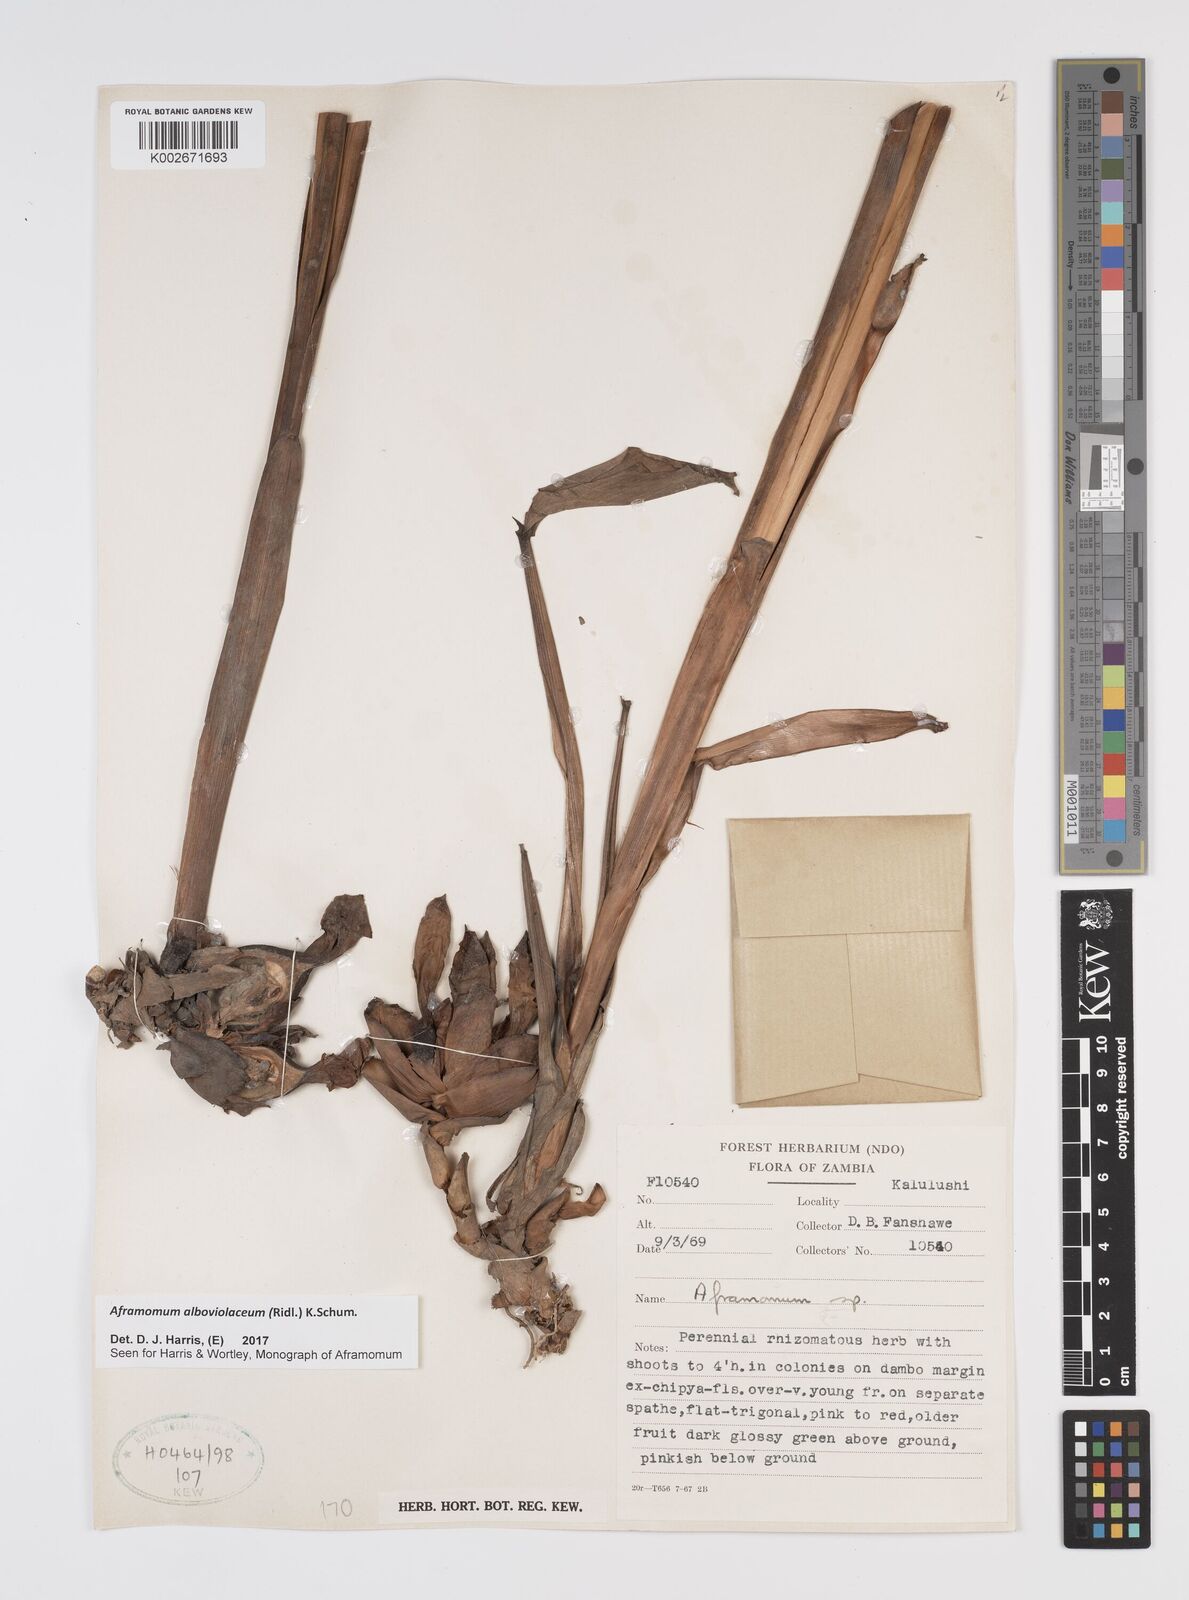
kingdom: Plantae
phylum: Tracheophyta
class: Liliopsida
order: Zingiberales
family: Zingiberaceae
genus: Aframomum
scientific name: Aframomum alboviolaceum
